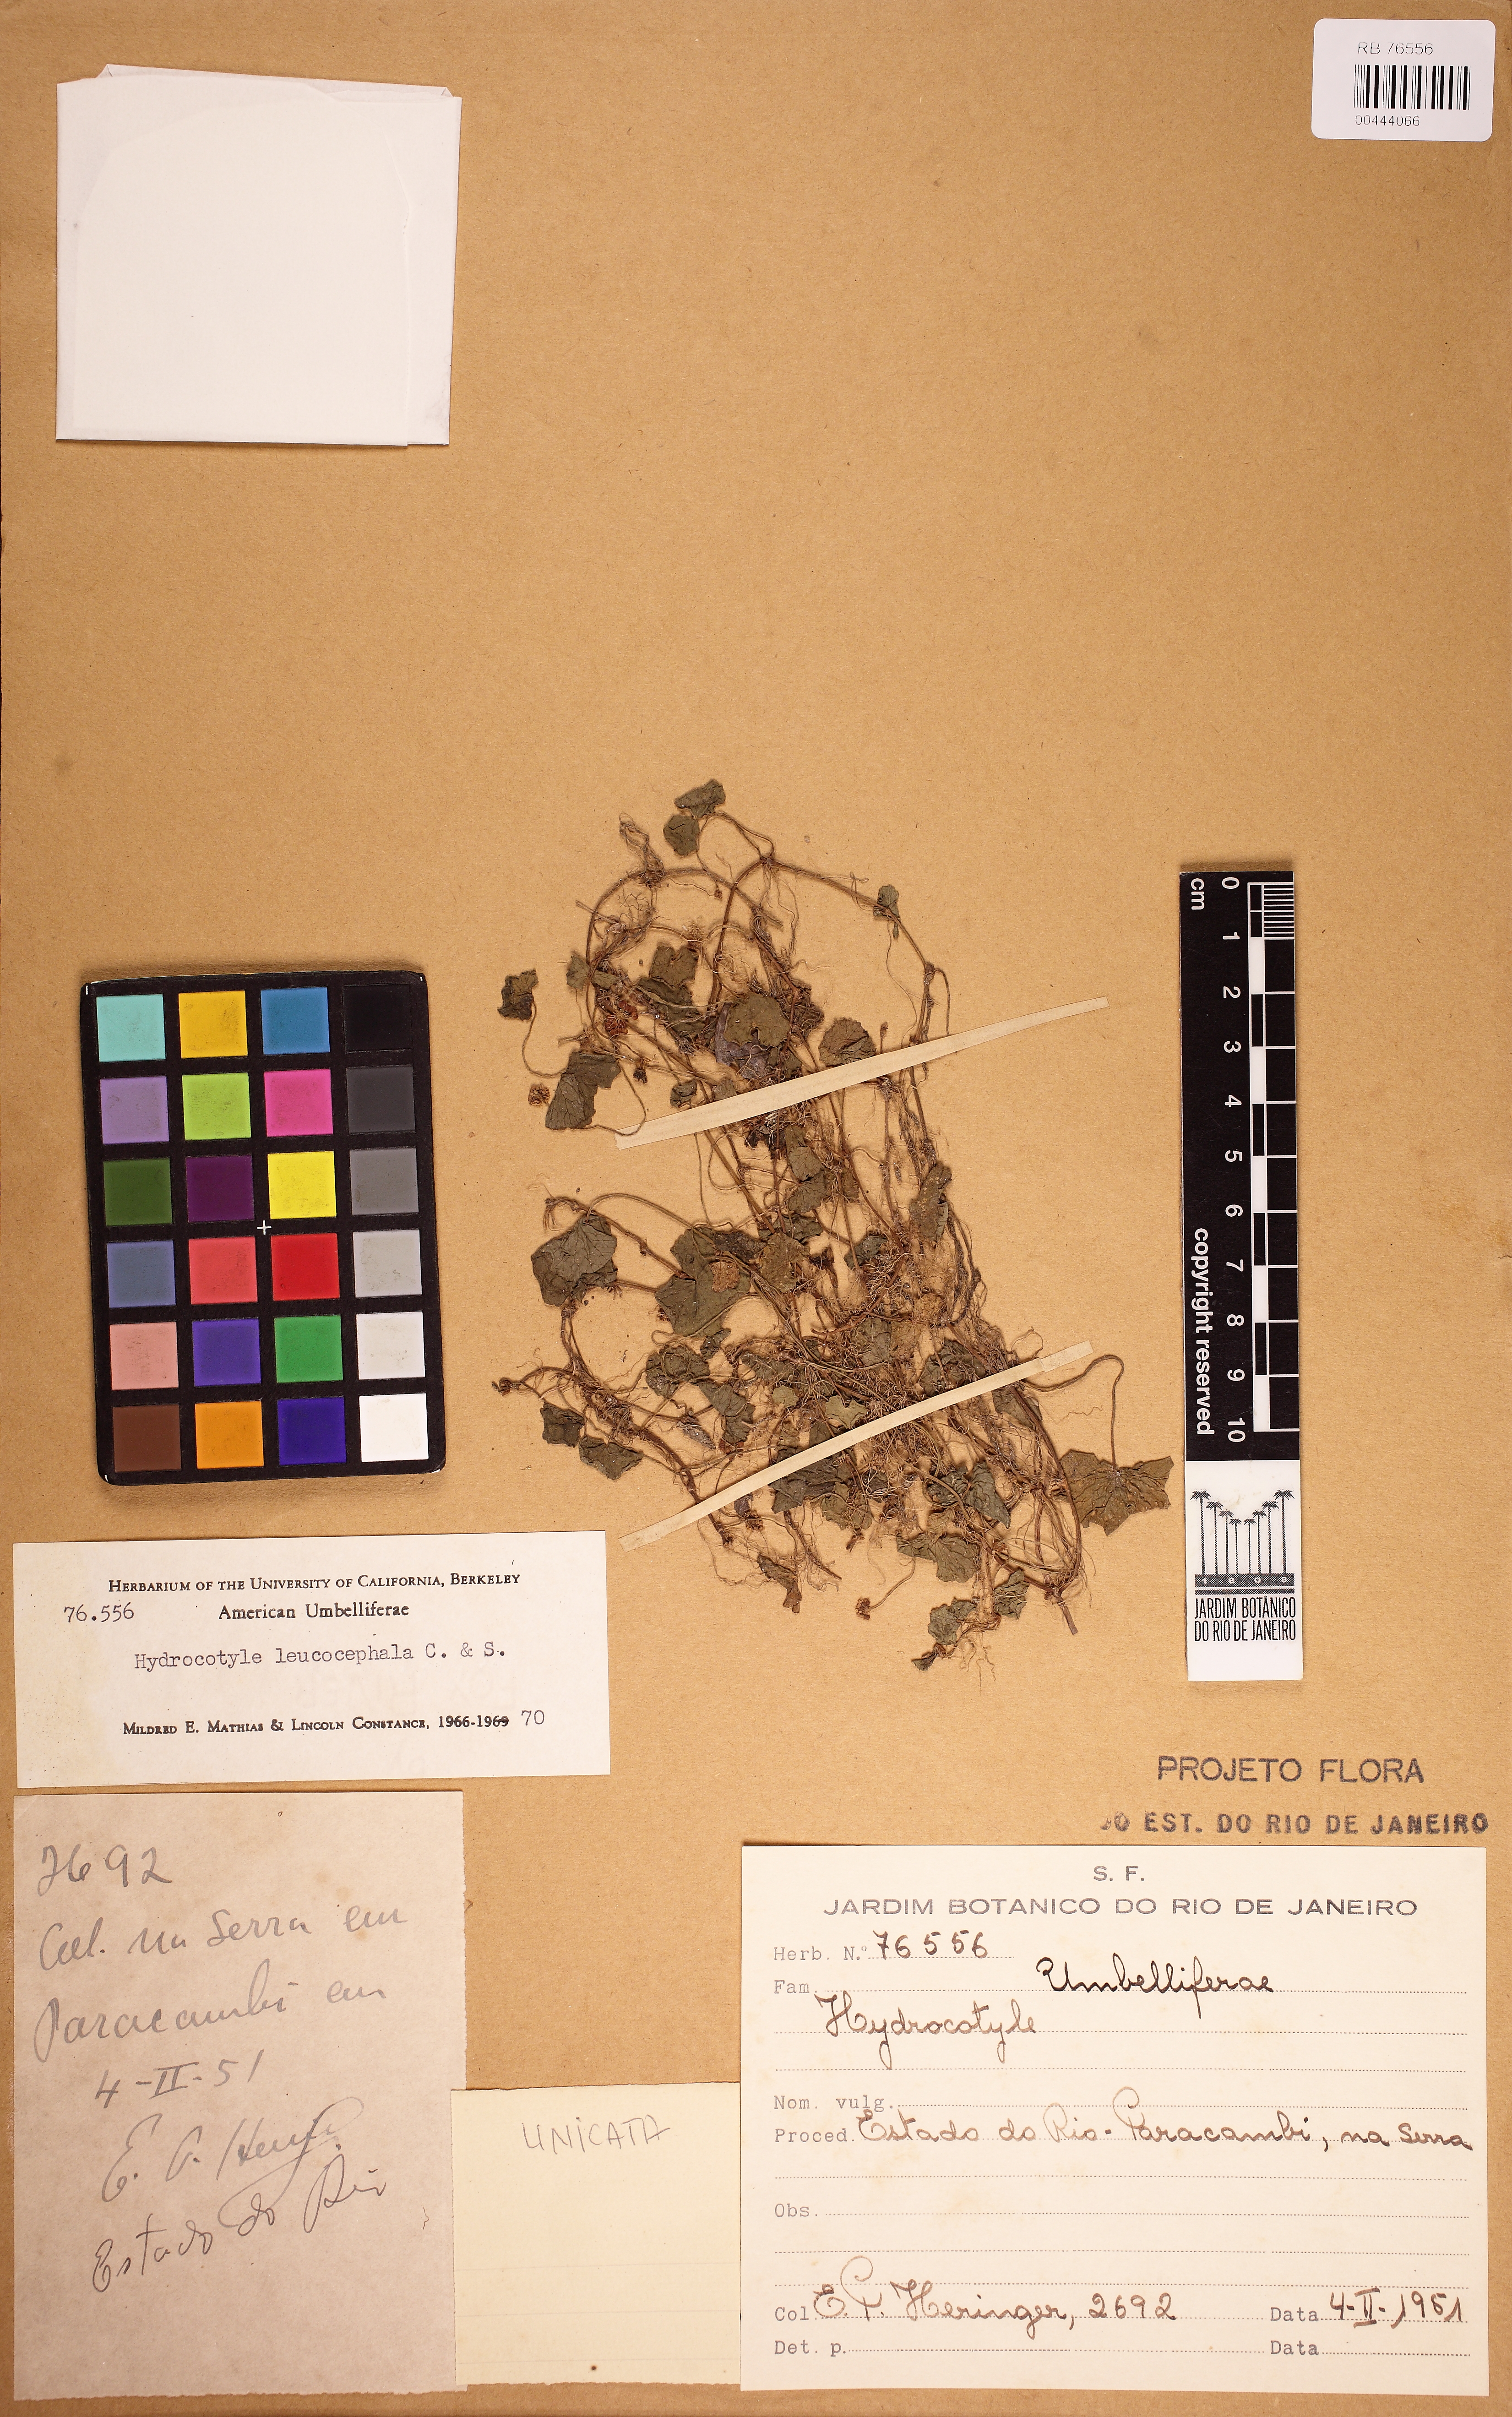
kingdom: Plantae
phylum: Tracheophyta
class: Magnoliopsida
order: Apiales
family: Araliaceae
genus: Hydrocotyle
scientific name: Hydrocotyle leucocephala
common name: Brazilian pennywort
